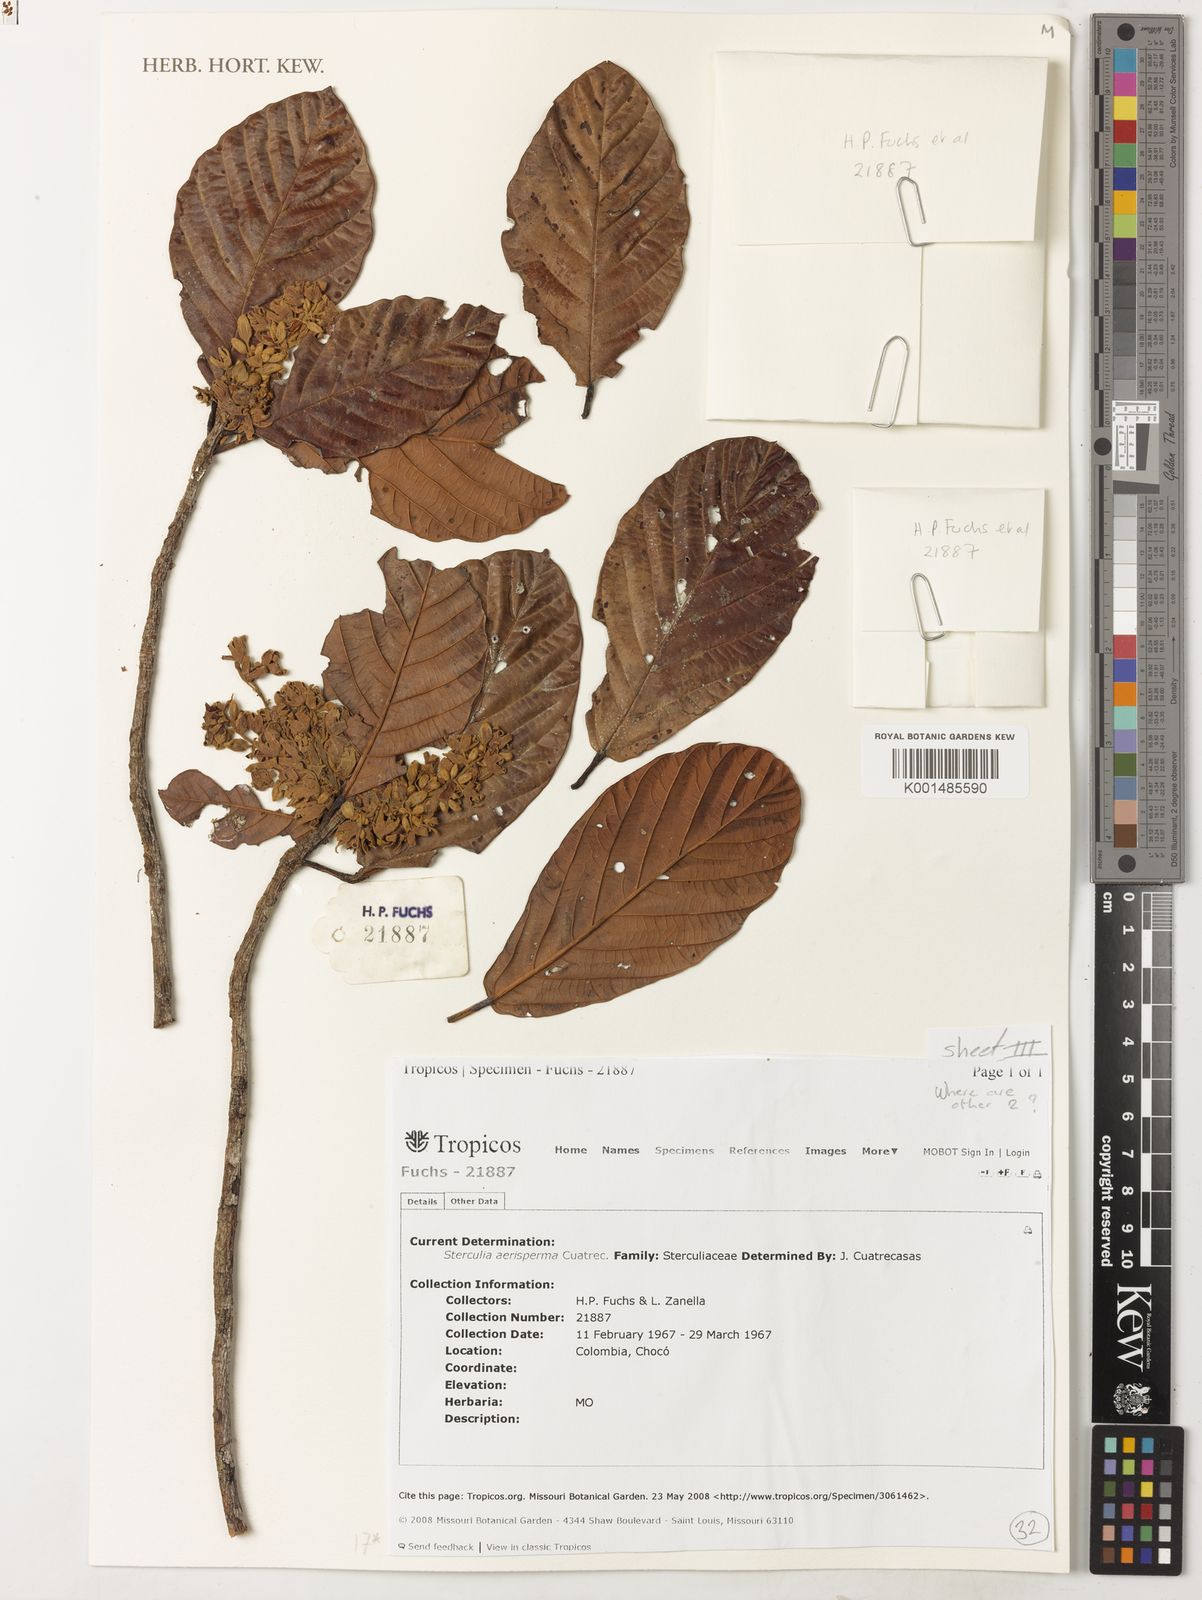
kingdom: Plantae
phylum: Tracheophyta
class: Magnoliopsida
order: Malvales
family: Malvaceae
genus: Sterculia
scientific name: Sterculia aerisperma
